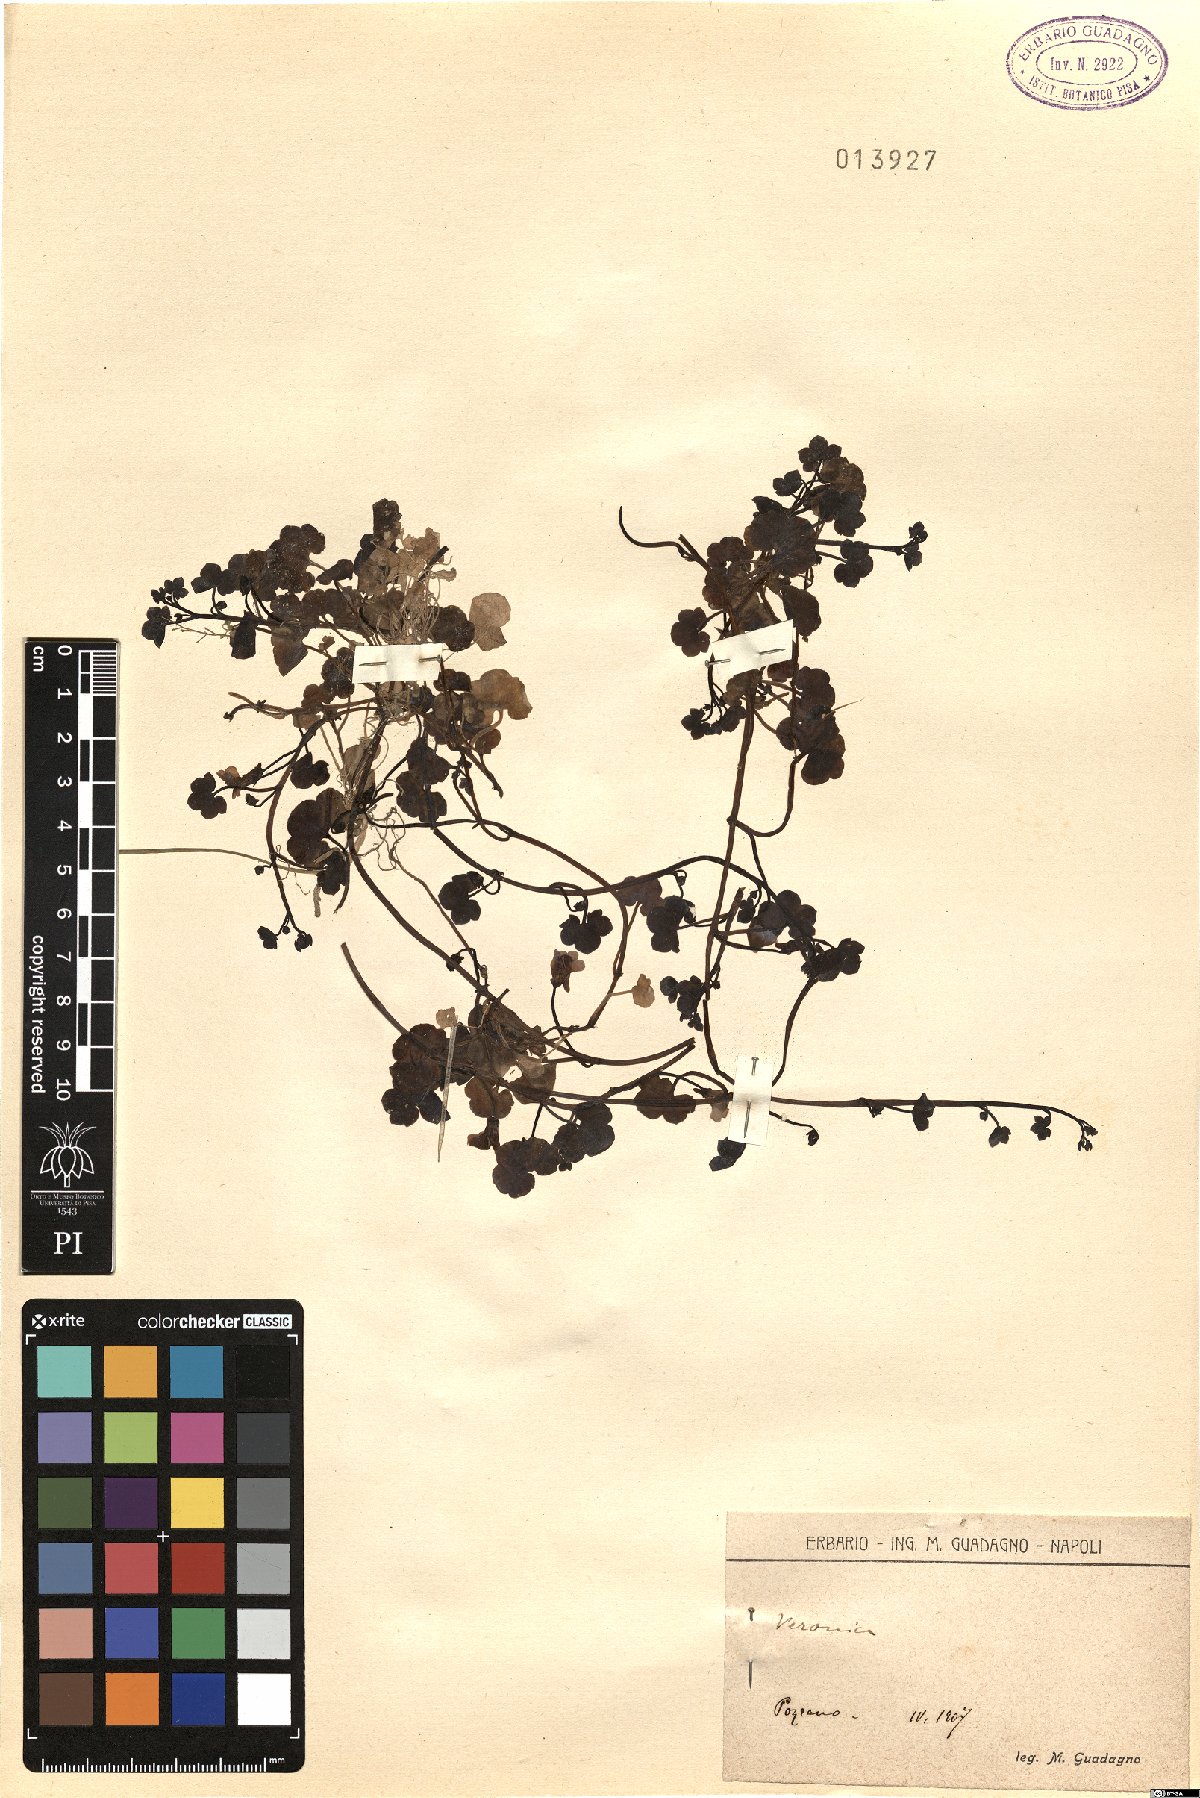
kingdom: Plantae
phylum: Tracheophyta
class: Magnoliopsida
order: Lamiales
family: Plantaginaceae
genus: Veronica
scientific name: Veronica
